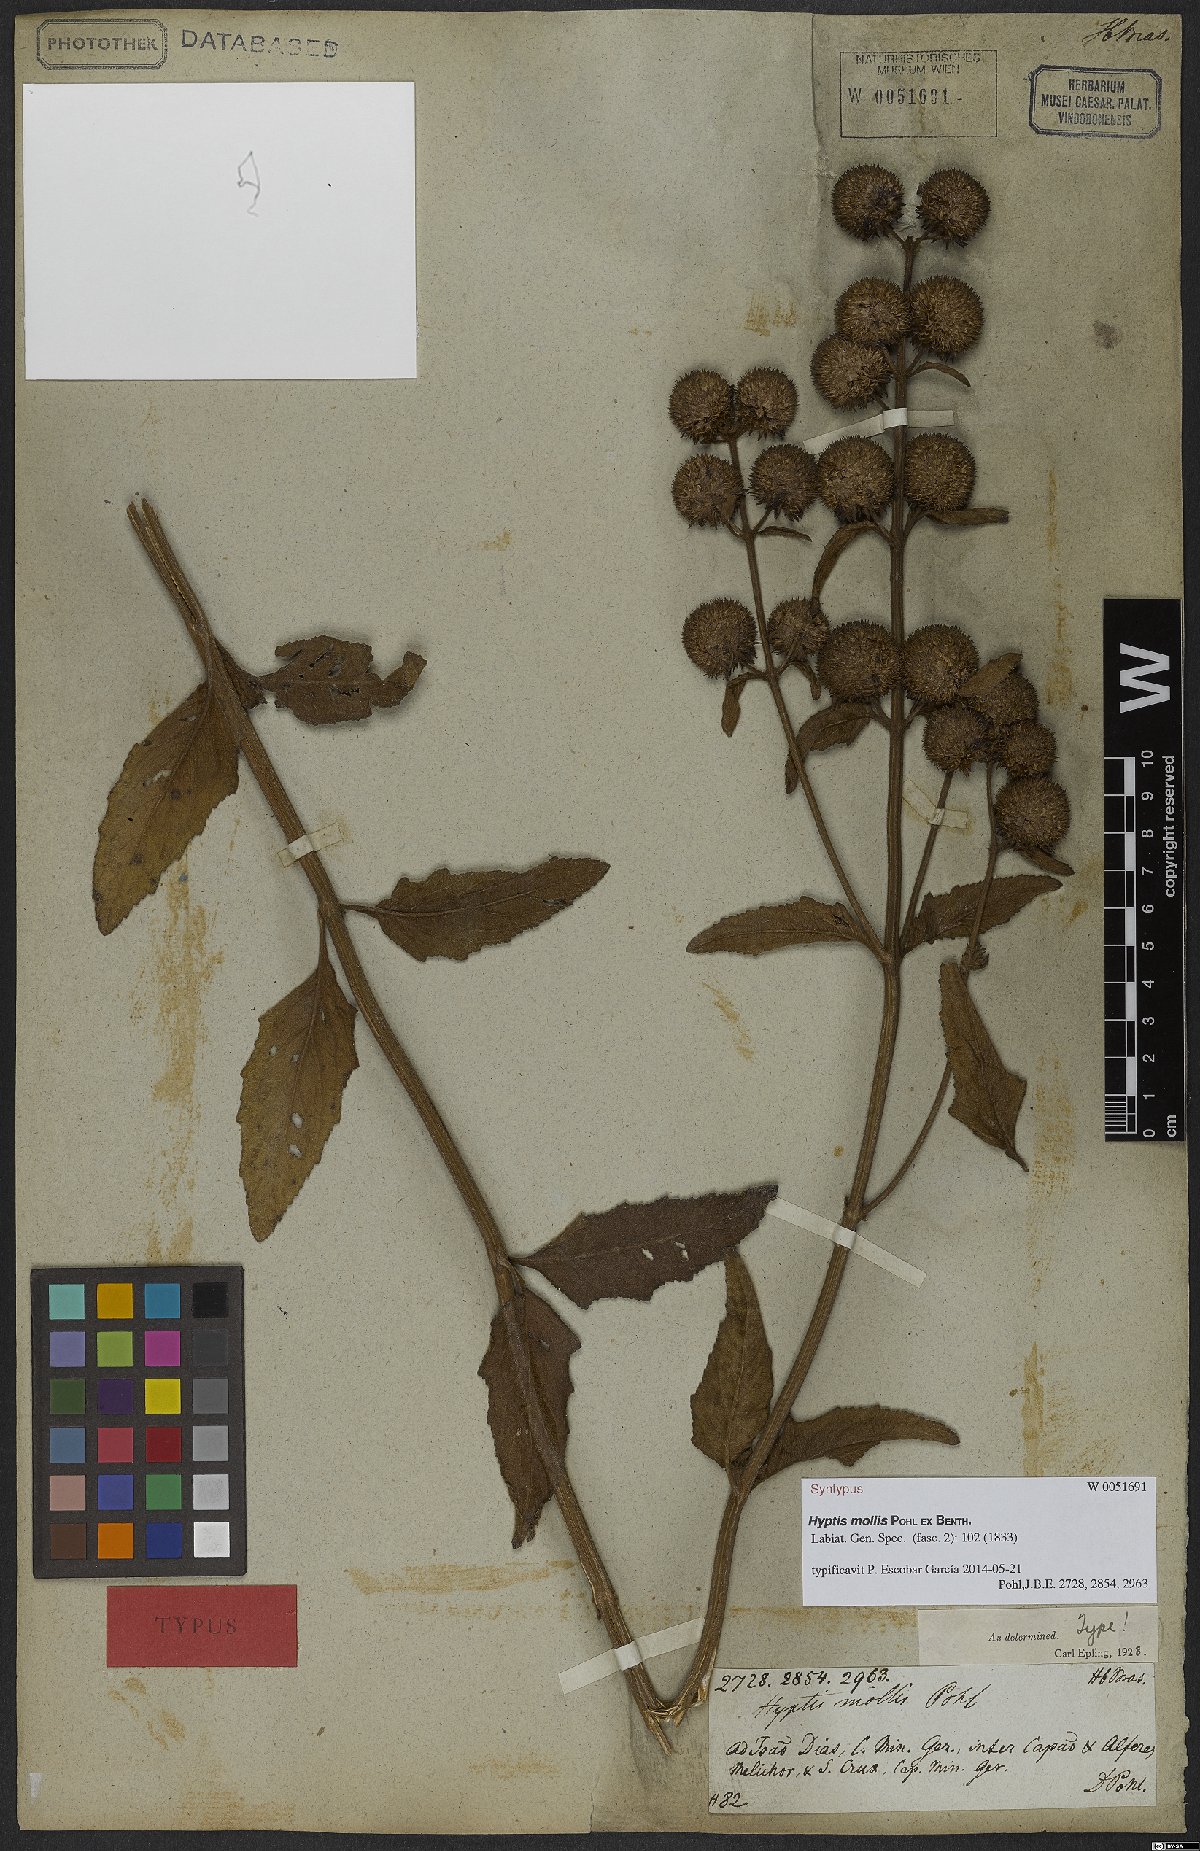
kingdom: Plantae
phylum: Tracheophyta
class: Magnoliopsida
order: Lamiales
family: Lamiaceae
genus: Hyptis
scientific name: Hyptis mollis
